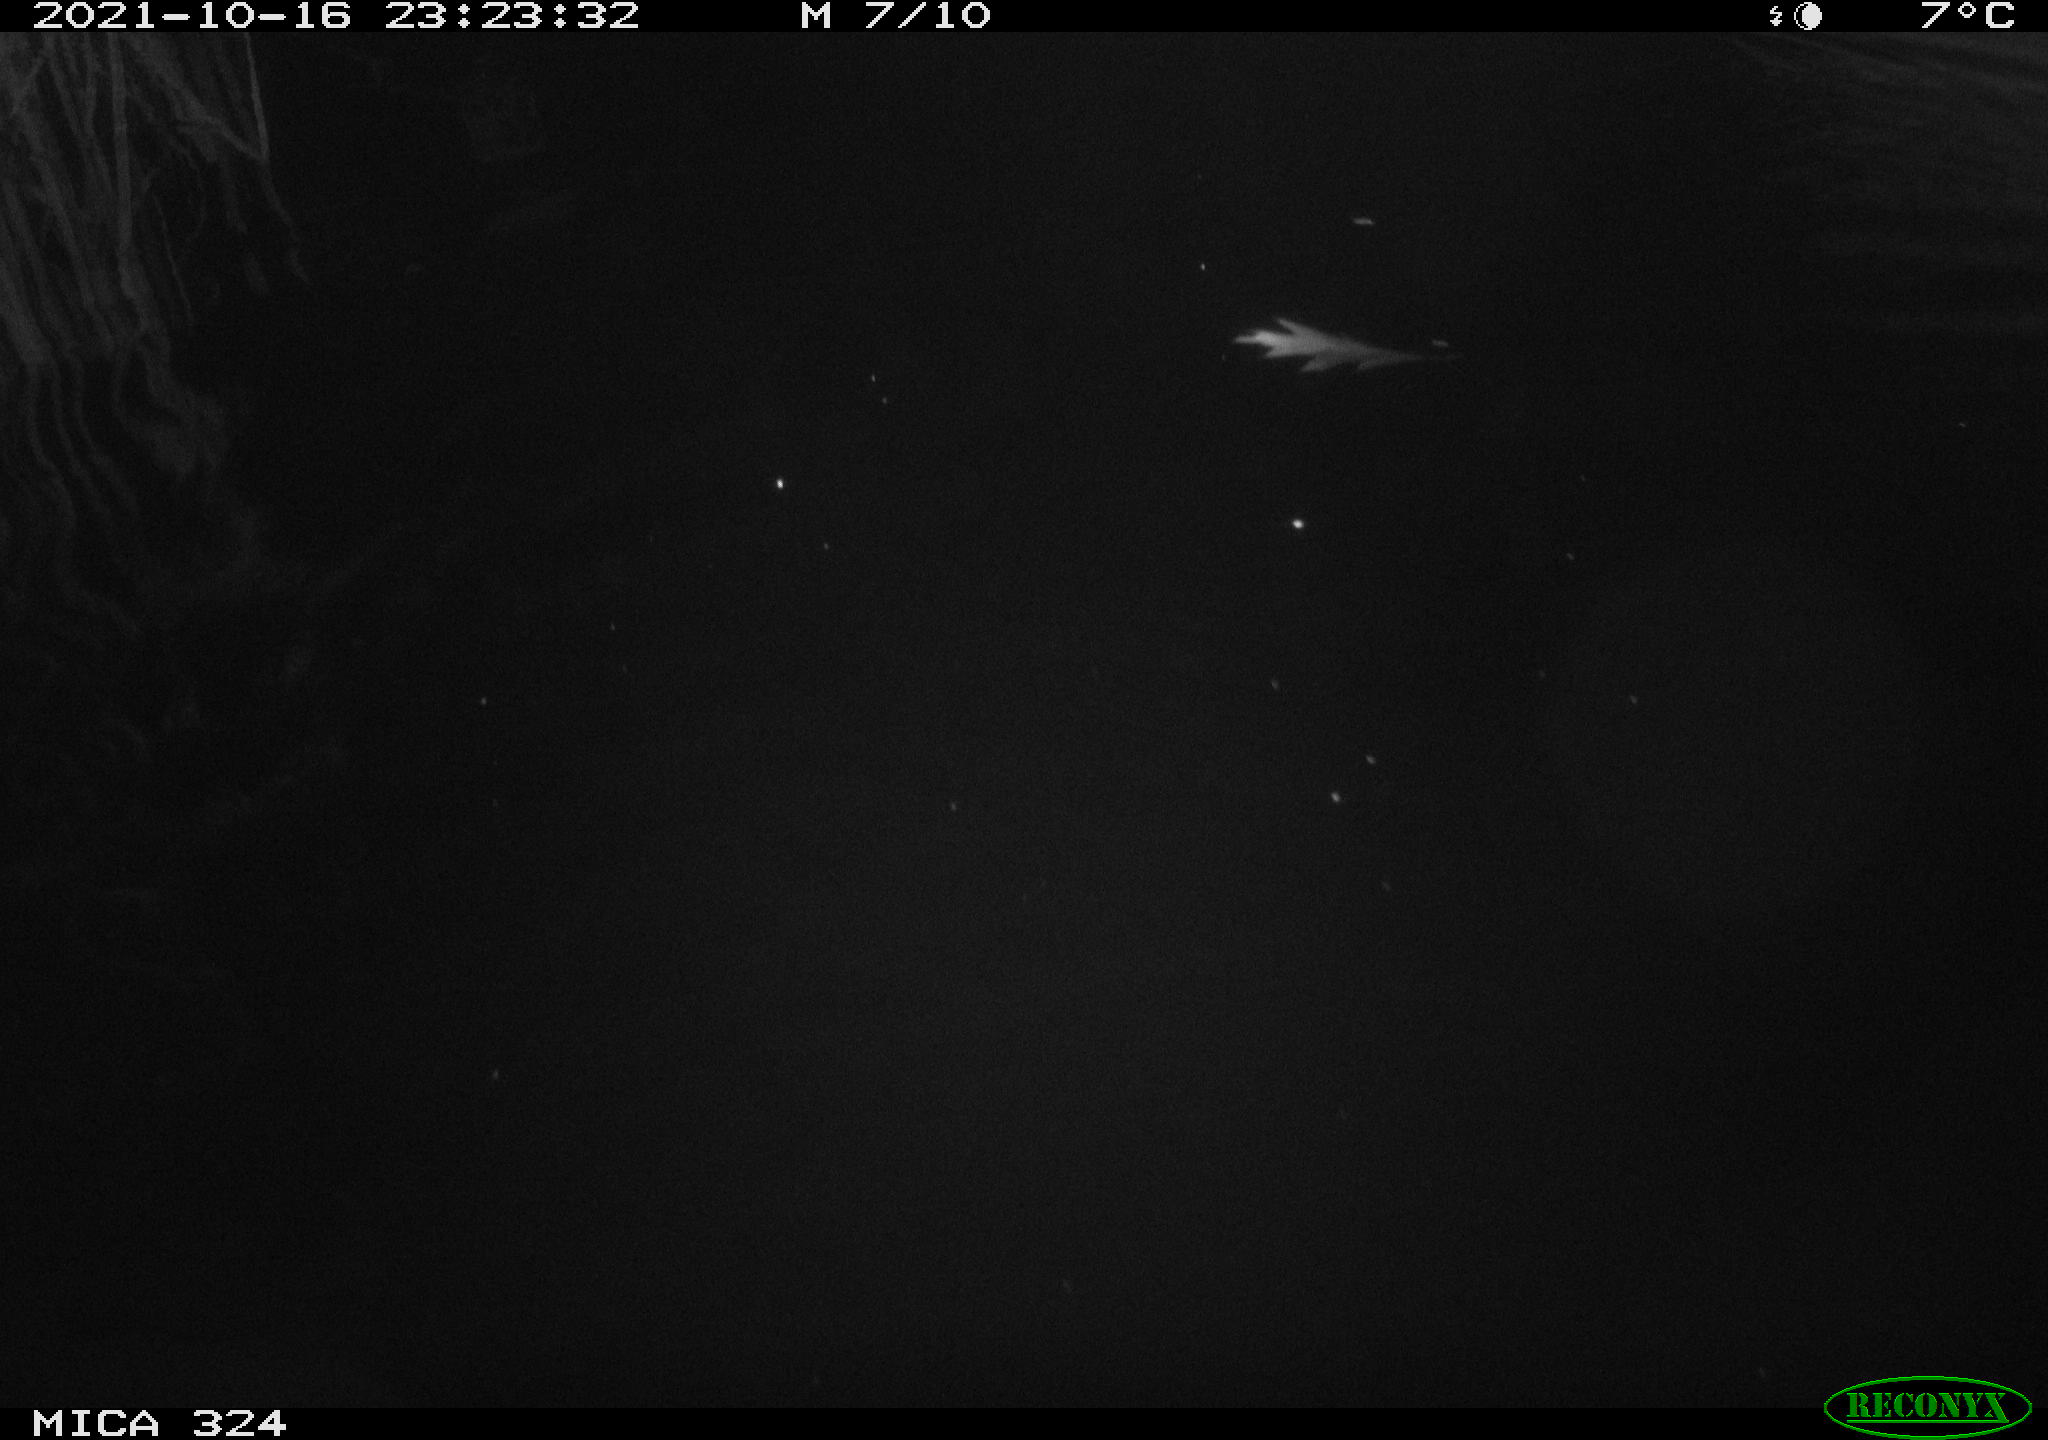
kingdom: Animalia
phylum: Chordata
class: Mammalia
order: Rodentia
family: Cricetidae
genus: Ondatra
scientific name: Ondatra zibethicus
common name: Muskrat
